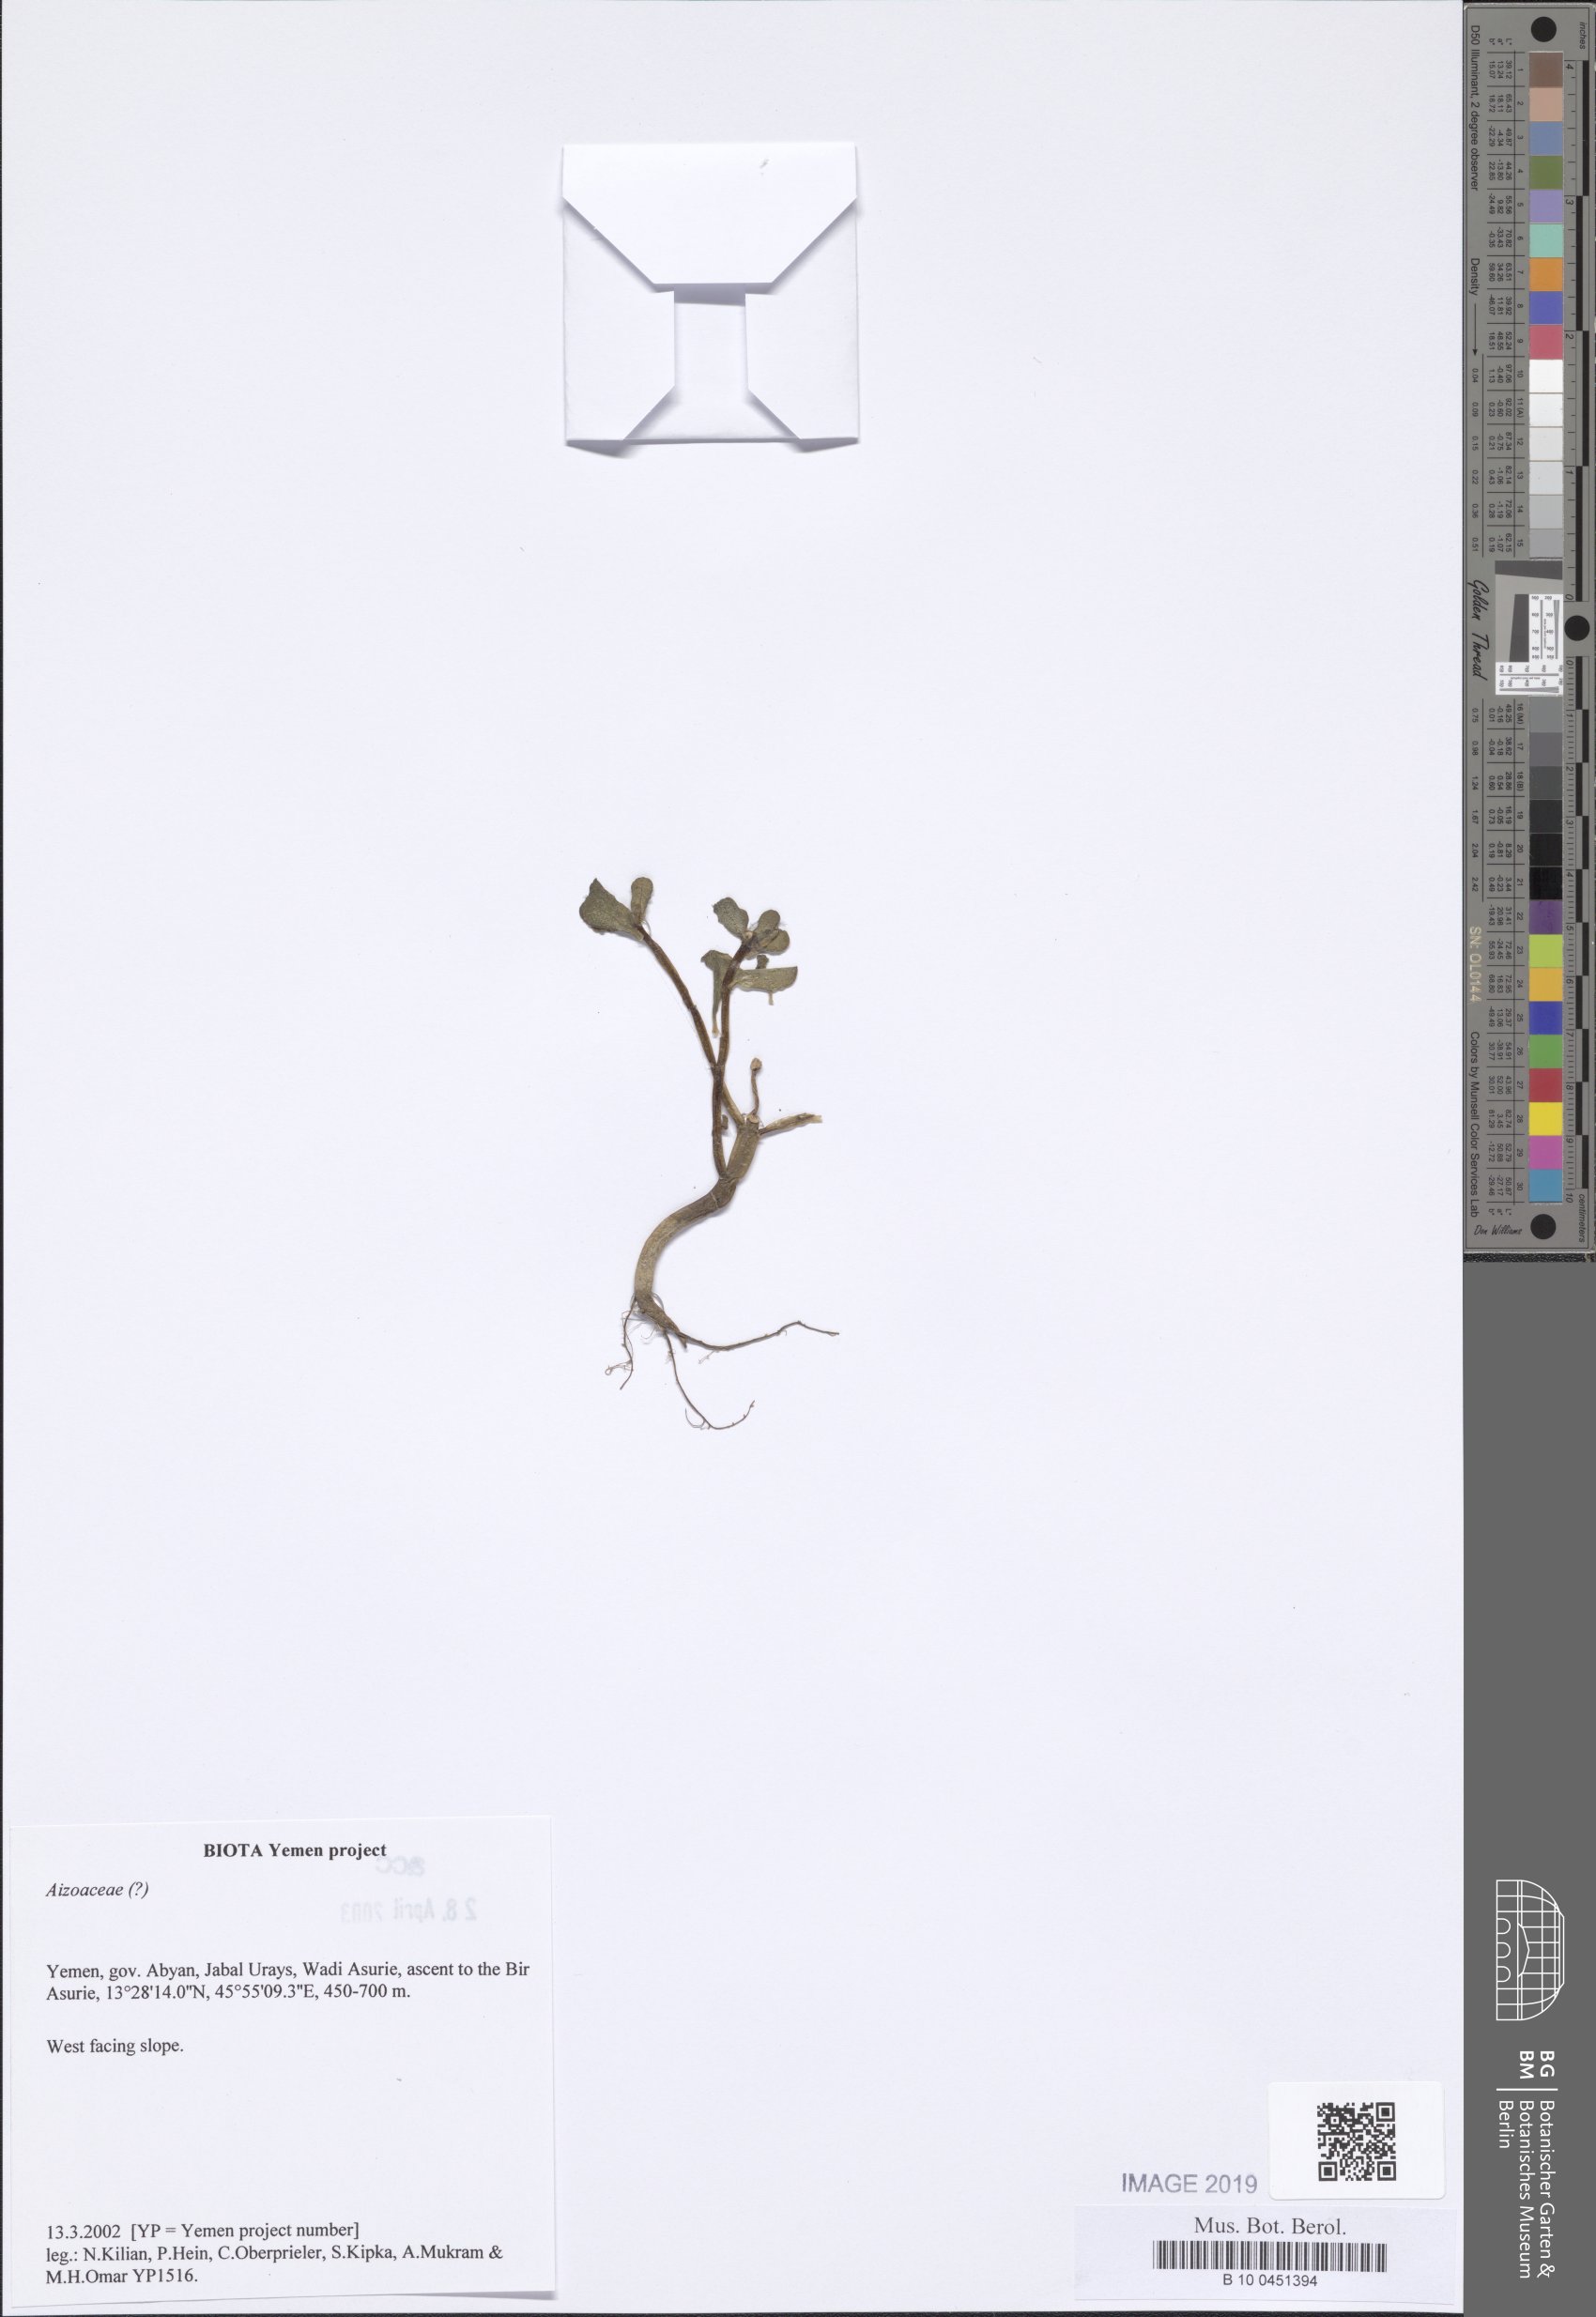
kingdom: Plantae
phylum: Tracheophyta
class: Magnoliopsida
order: Caryophyllales
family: Aizoaceae
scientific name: Aizoaceae
